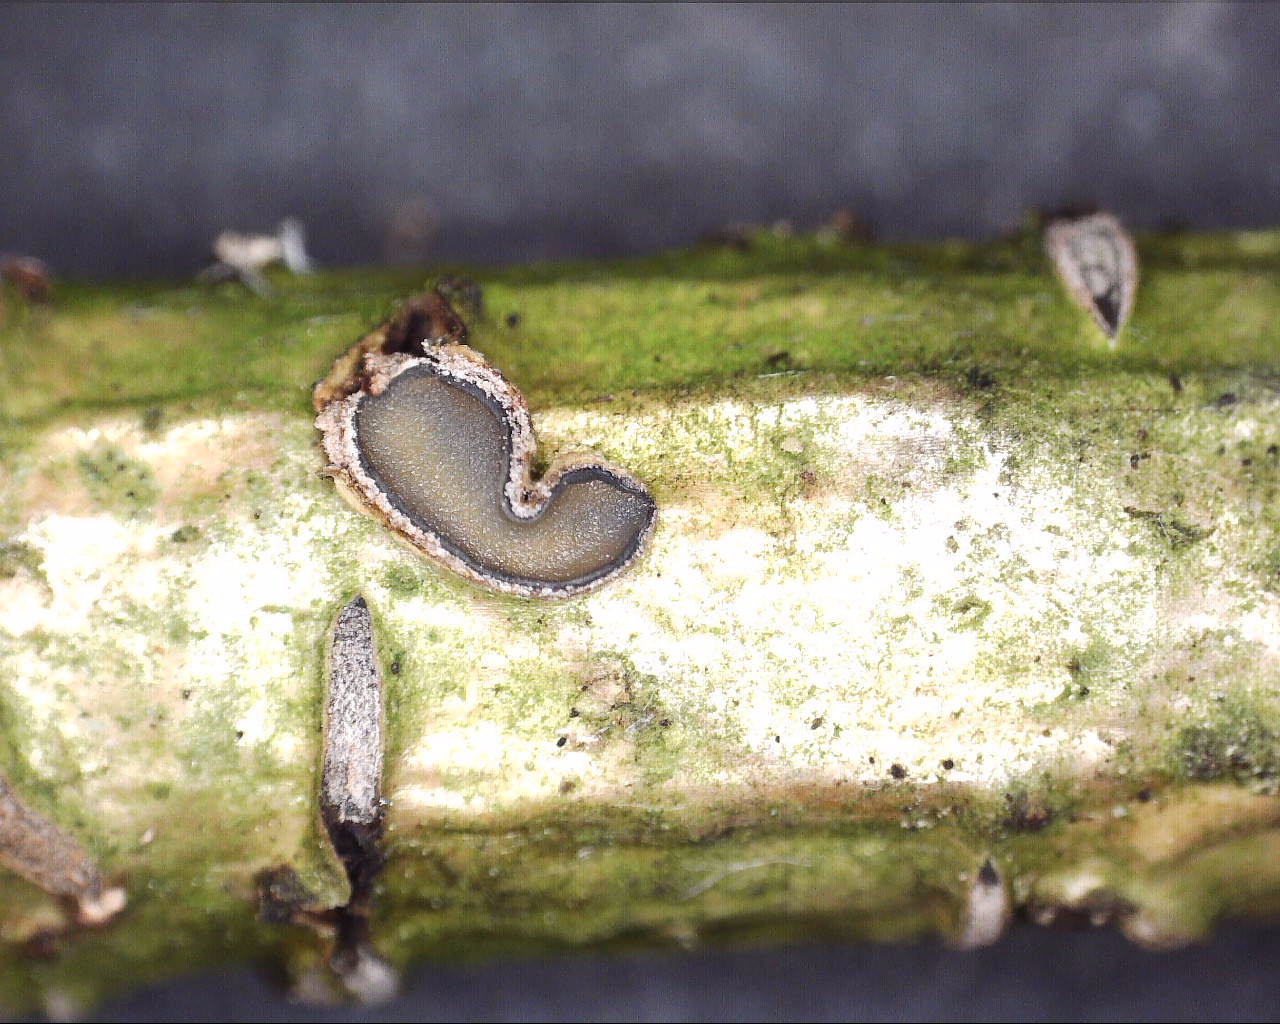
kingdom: Fungi
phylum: Ascomycota
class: Leotiomycetes
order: Rhytismatales
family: Rhytismataceae
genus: Colpoma
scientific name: Colpoma quercinum
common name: ege-sprækkeskive
